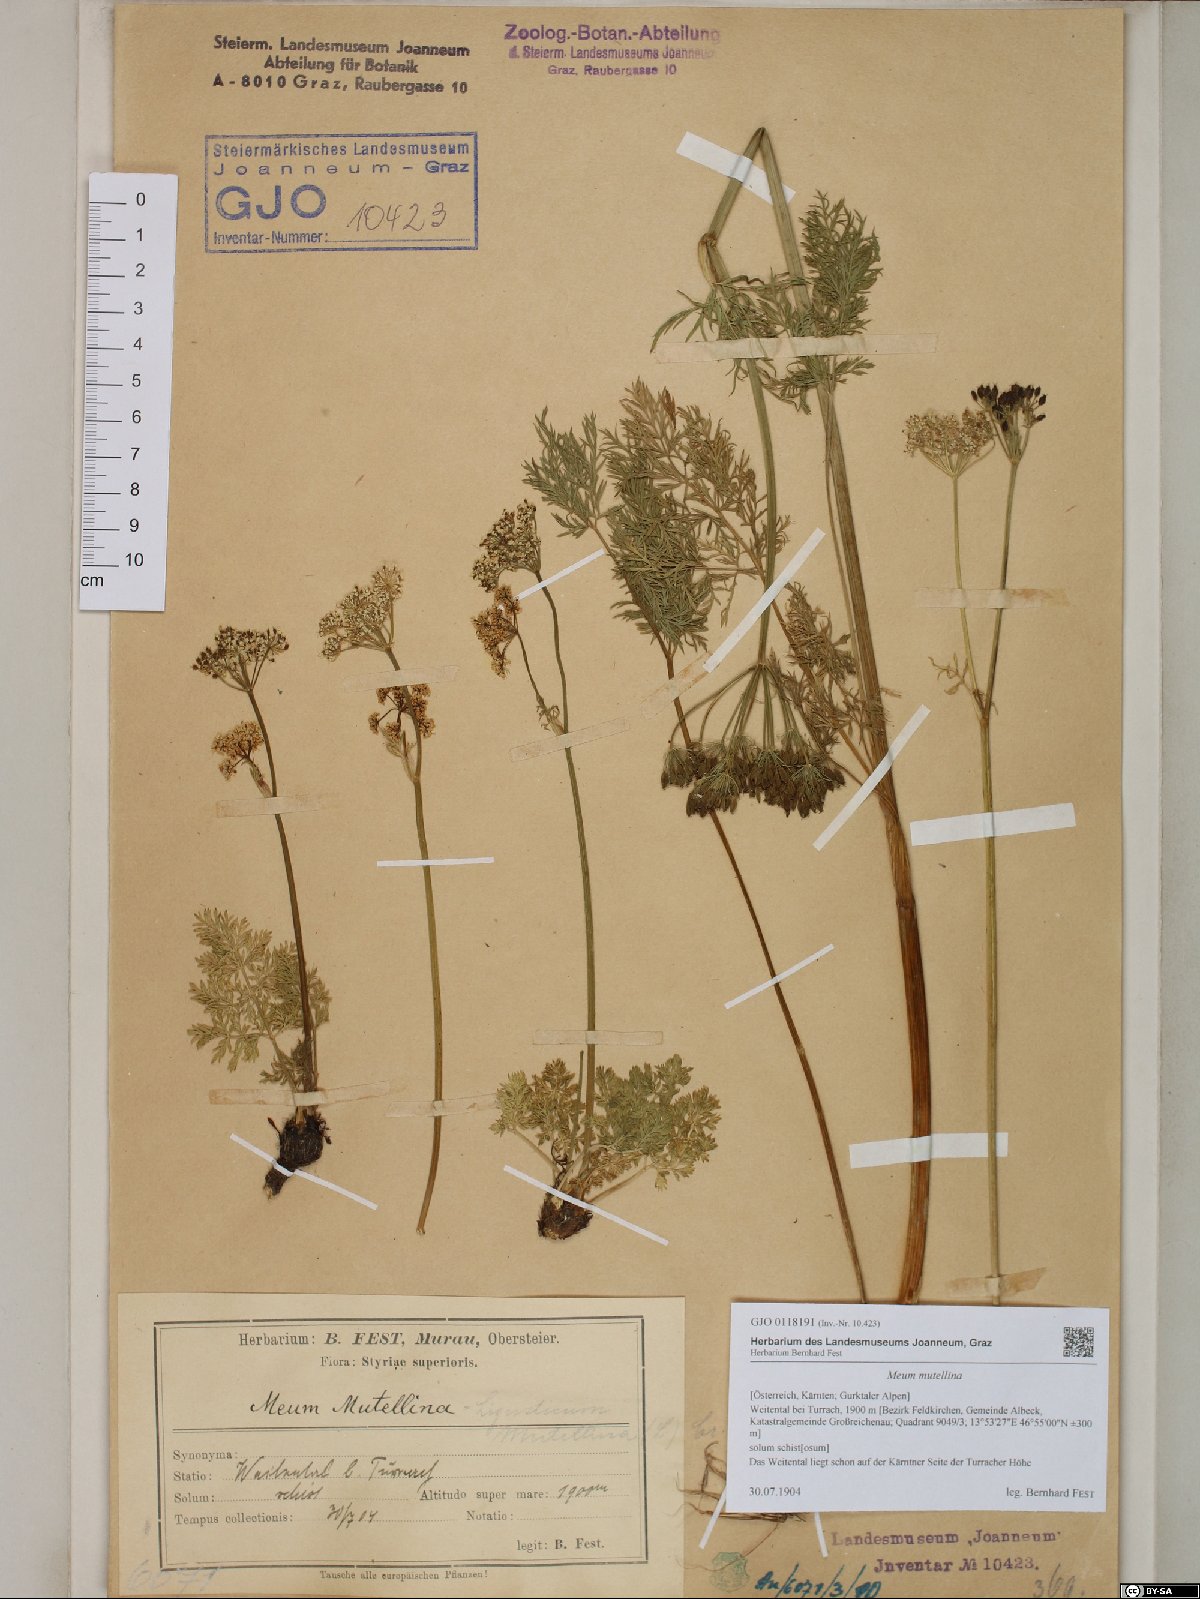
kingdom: Plantae
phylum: Tracheophyta
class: Magnoliopsida
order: Apiales
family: Apiaceae
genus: Mutellina
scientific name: Mutellina adonidifolia
